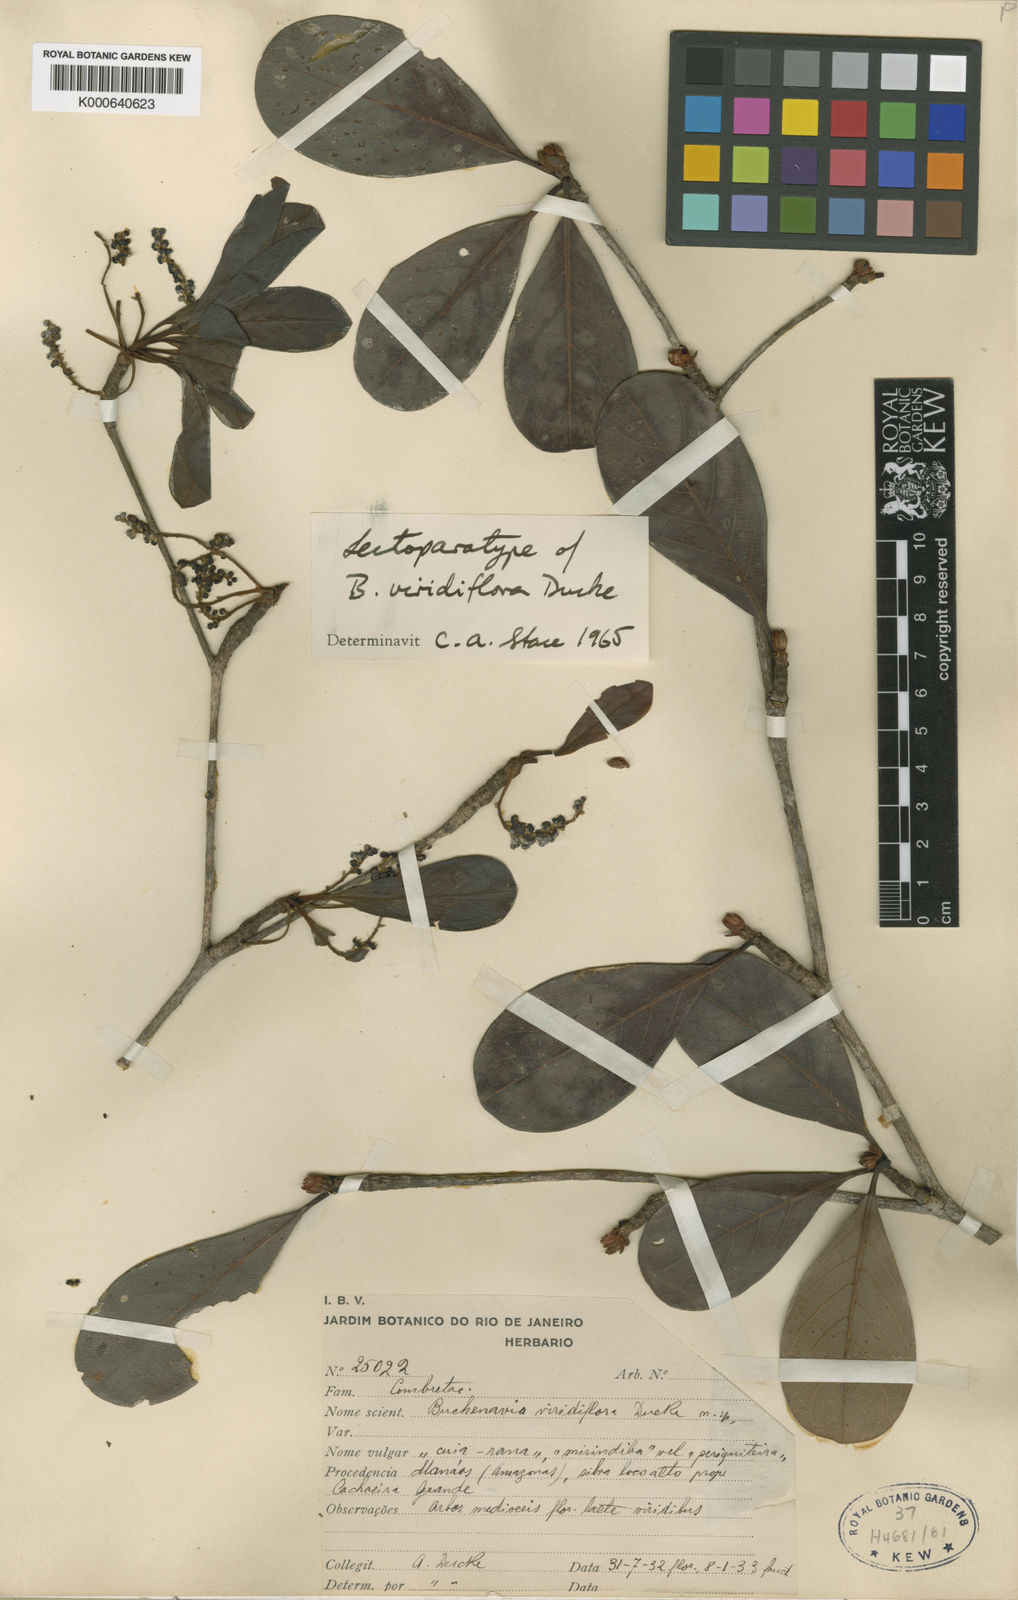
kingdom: Plantae
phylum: Tracheophyta
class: Magnoliopsida
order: Myrtales
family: Combretaceae
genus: Terminalia
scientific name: Terminalia viridiflora
